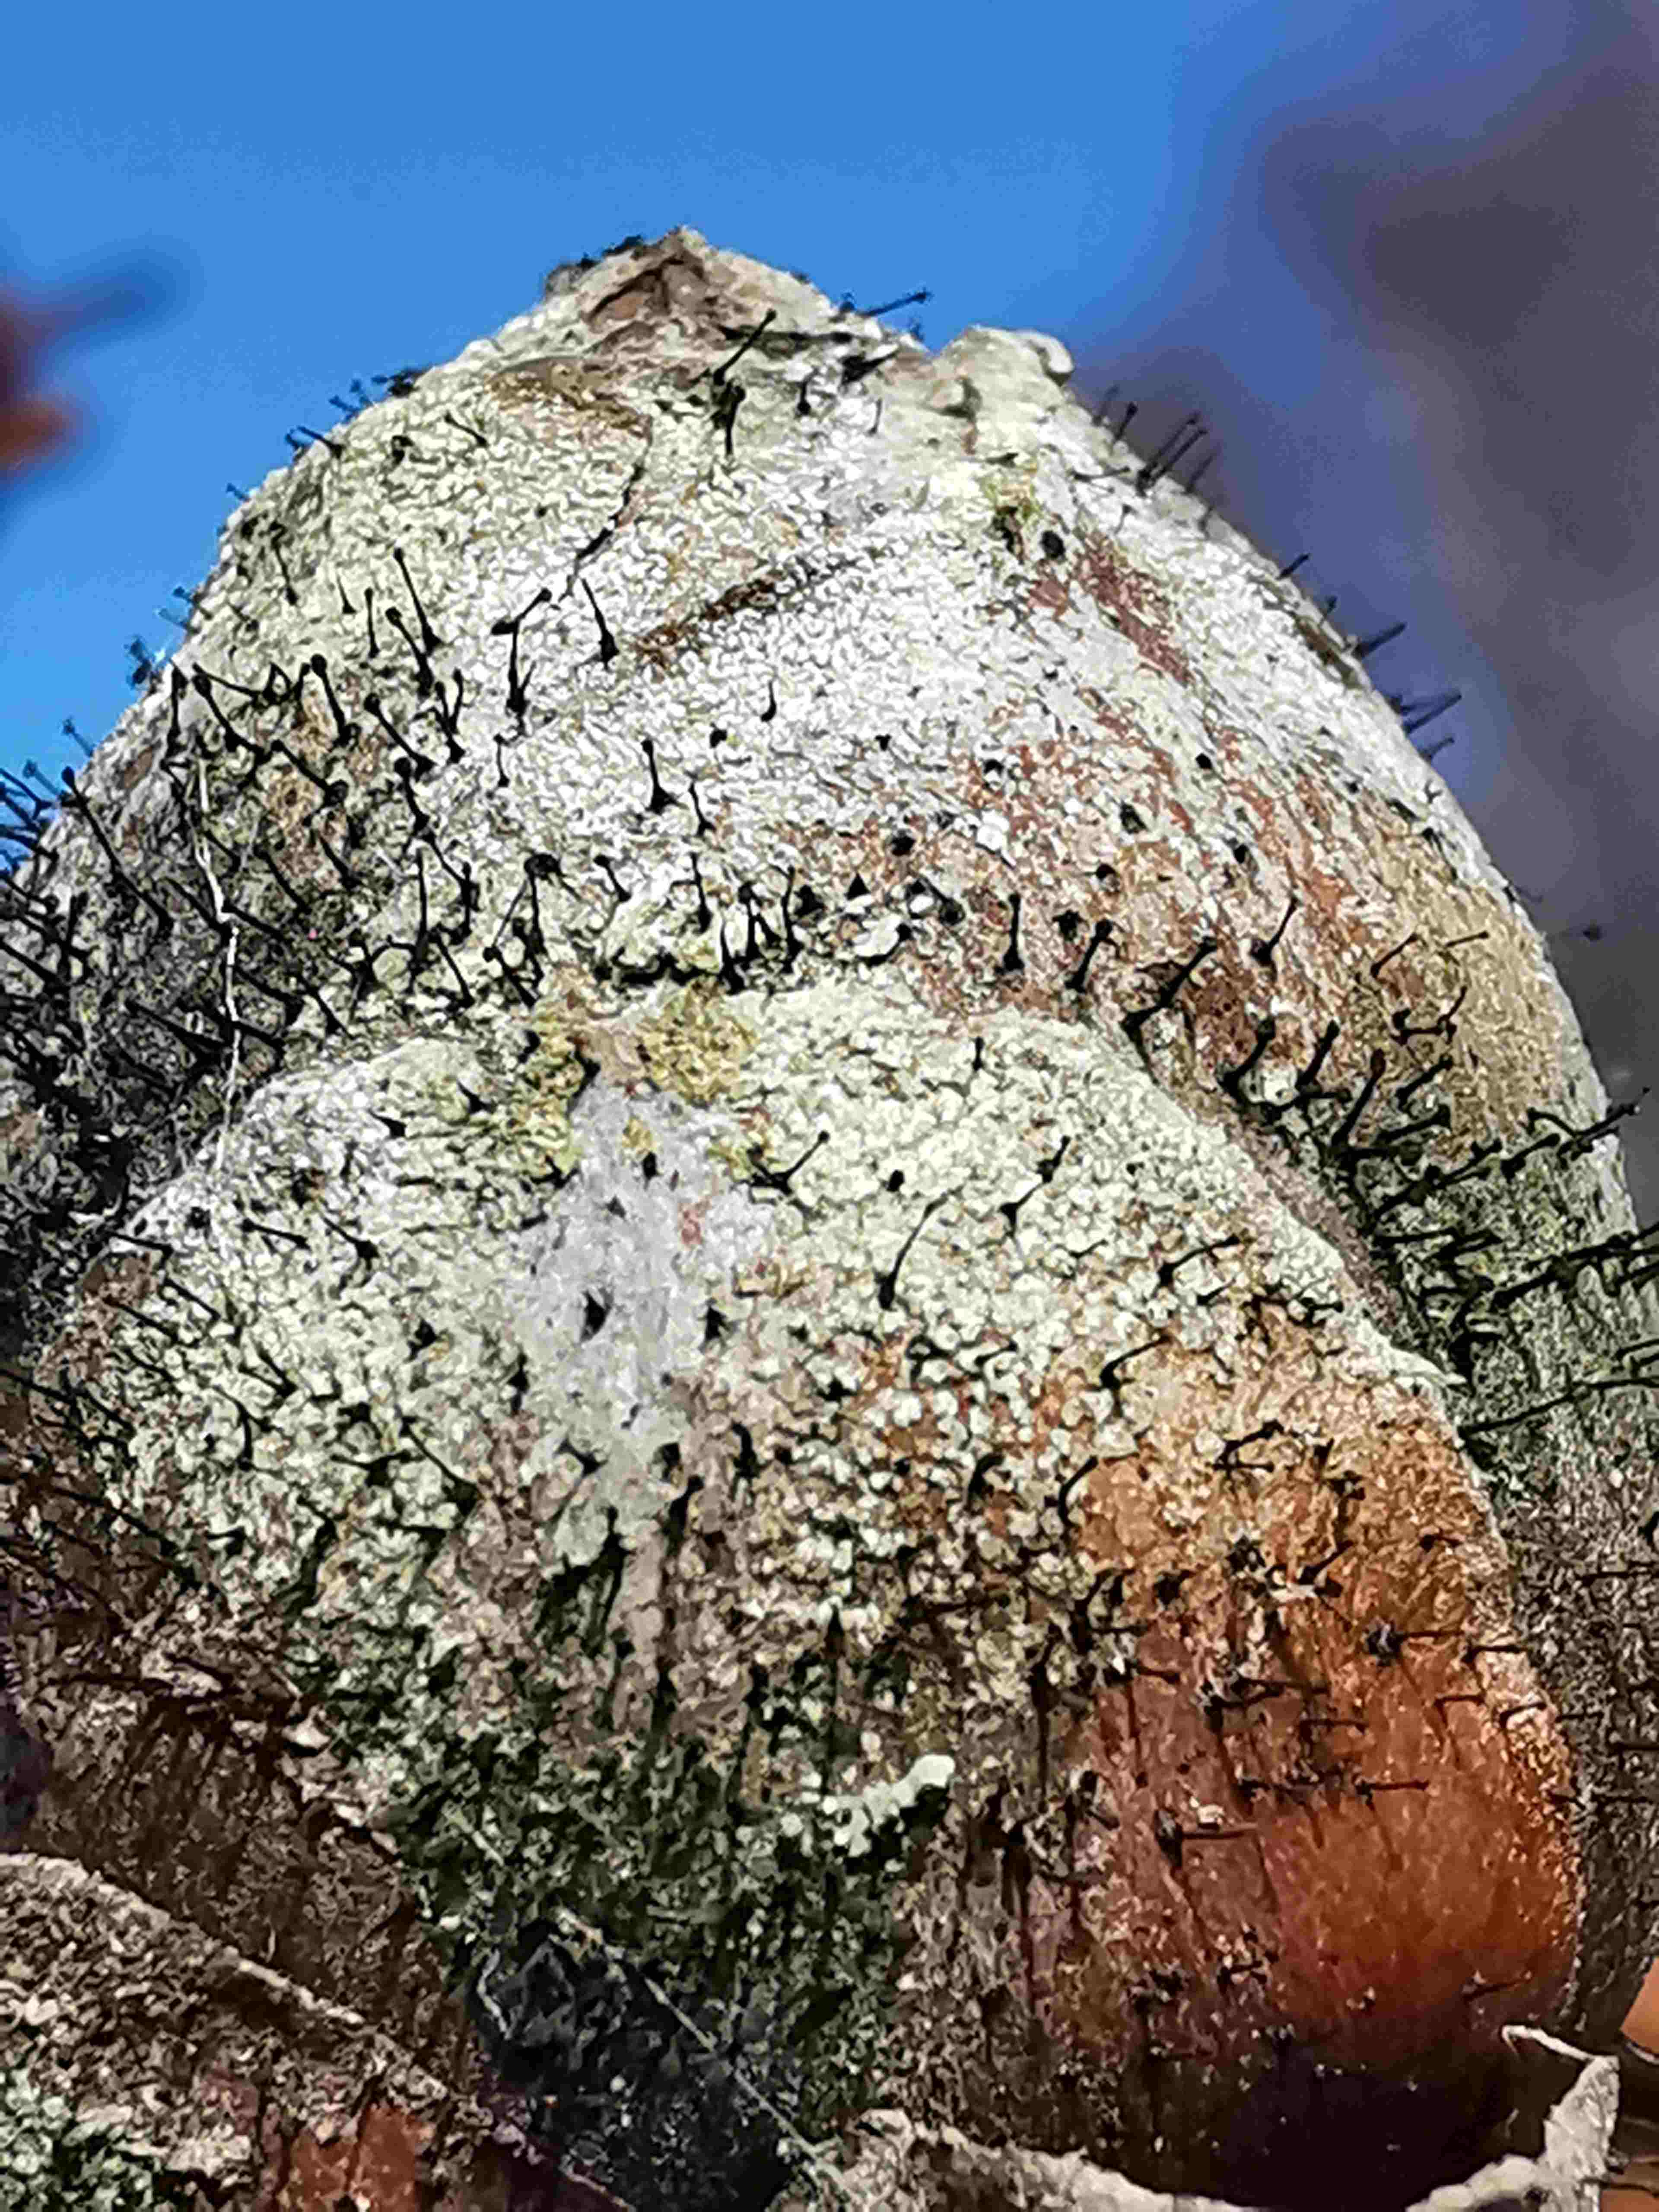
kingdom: Fungi
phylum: Ascomycota
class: Dothideomycetes
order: Pleosporales
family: Melanommataceae
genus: Seifertia
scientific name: Seifertia azaleae
